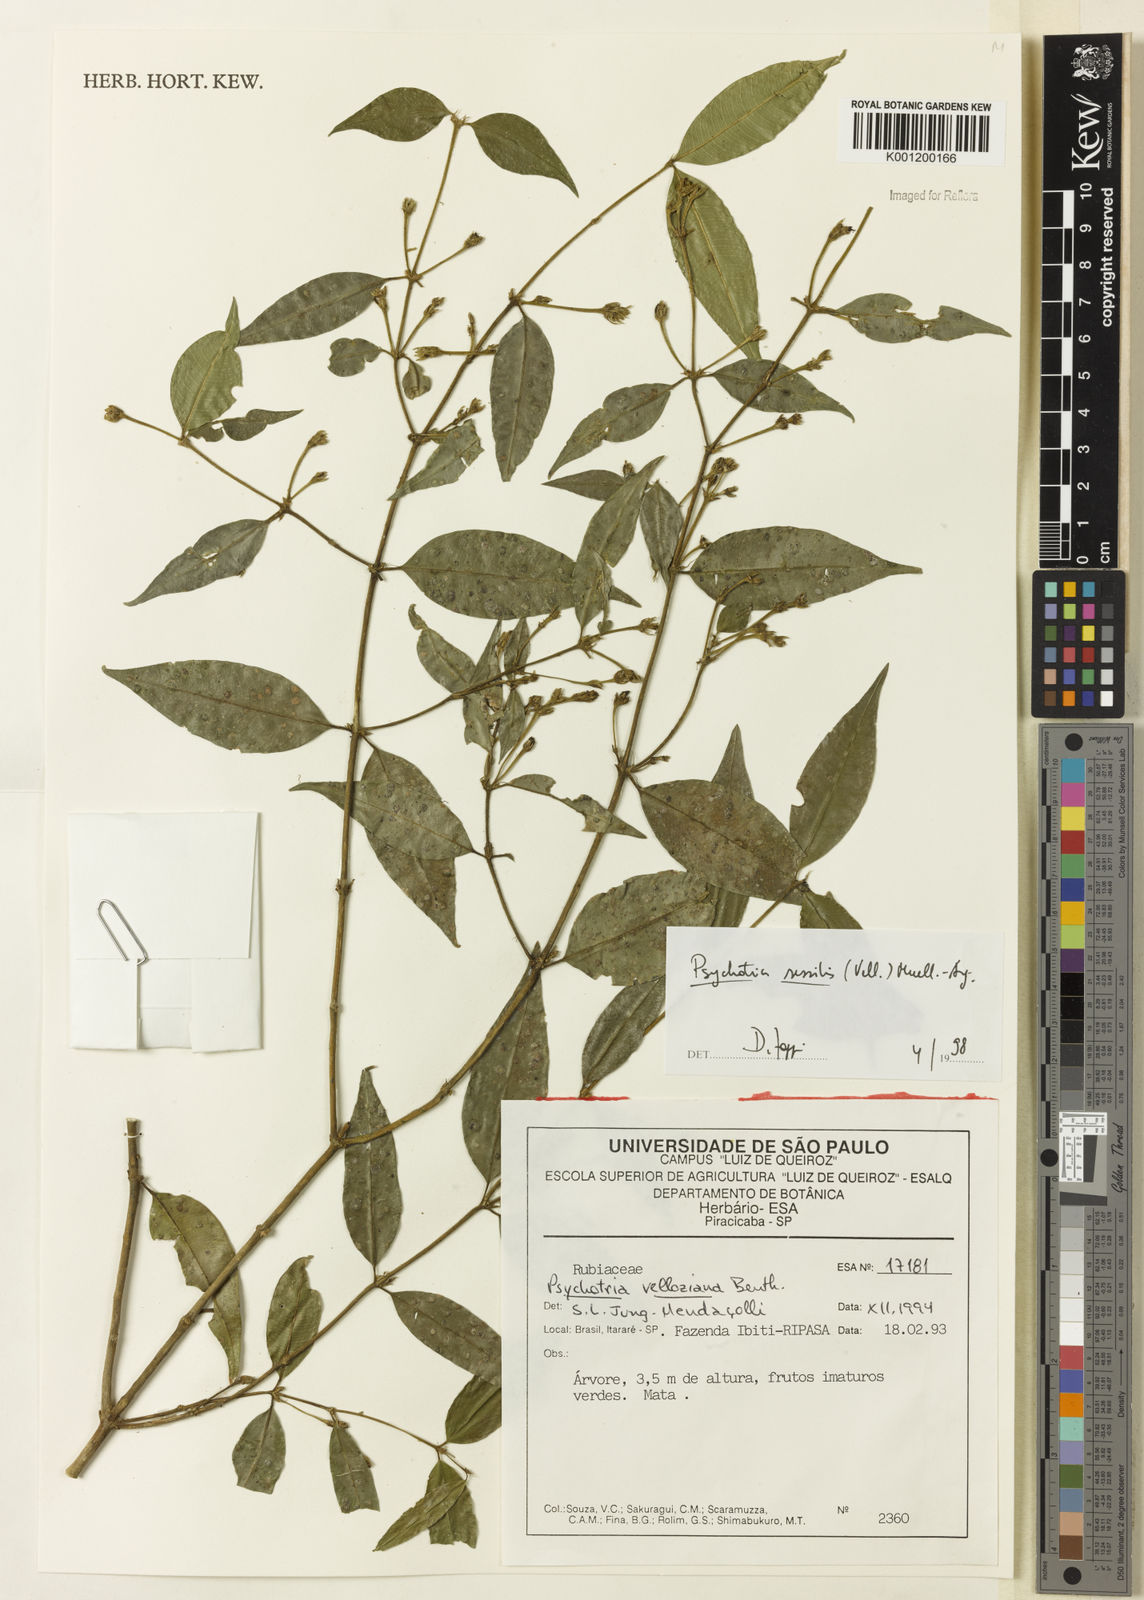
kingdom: Plantae
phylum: Tracheophyta
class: Magnoliopsida
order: Gentianales
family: Rubiaceae
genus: Rudgea
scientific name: Rudgea sessilis
